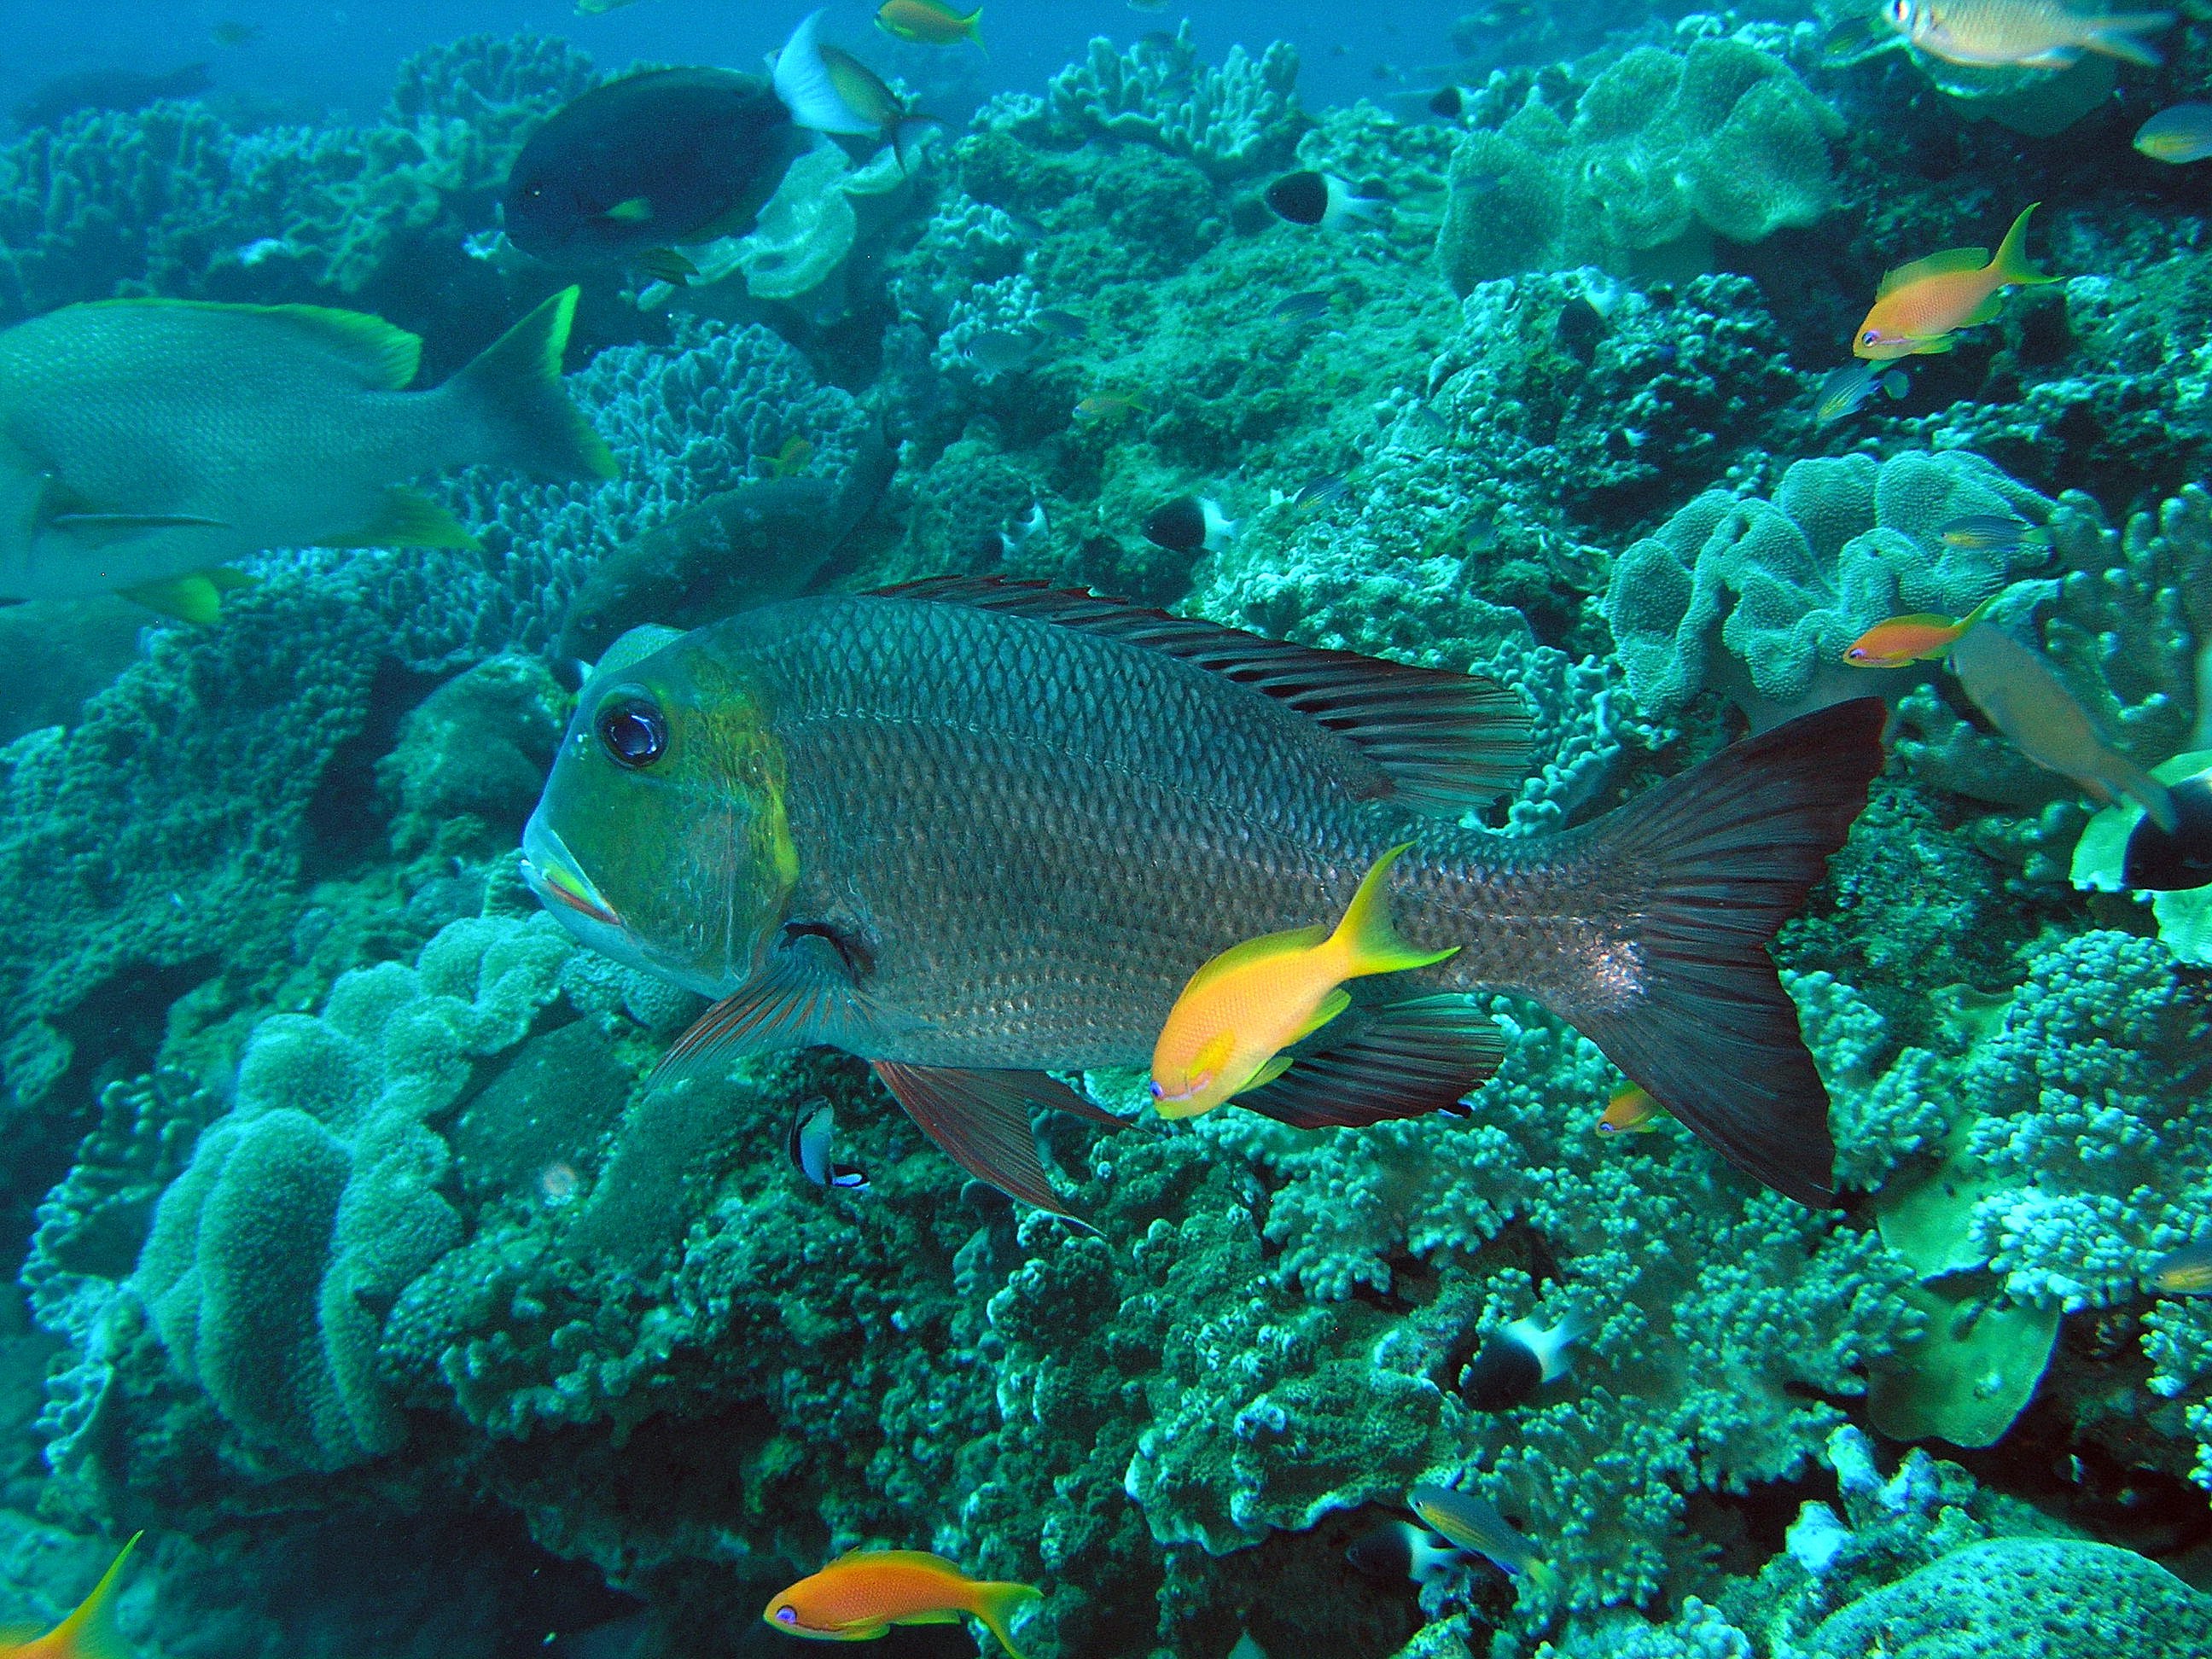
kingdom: Animalia
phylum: Chordata
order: Perciformes
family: Lethrinidae
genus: Monotaxis
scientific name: Monotaxis grandoculis
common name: Bigeye emperor
